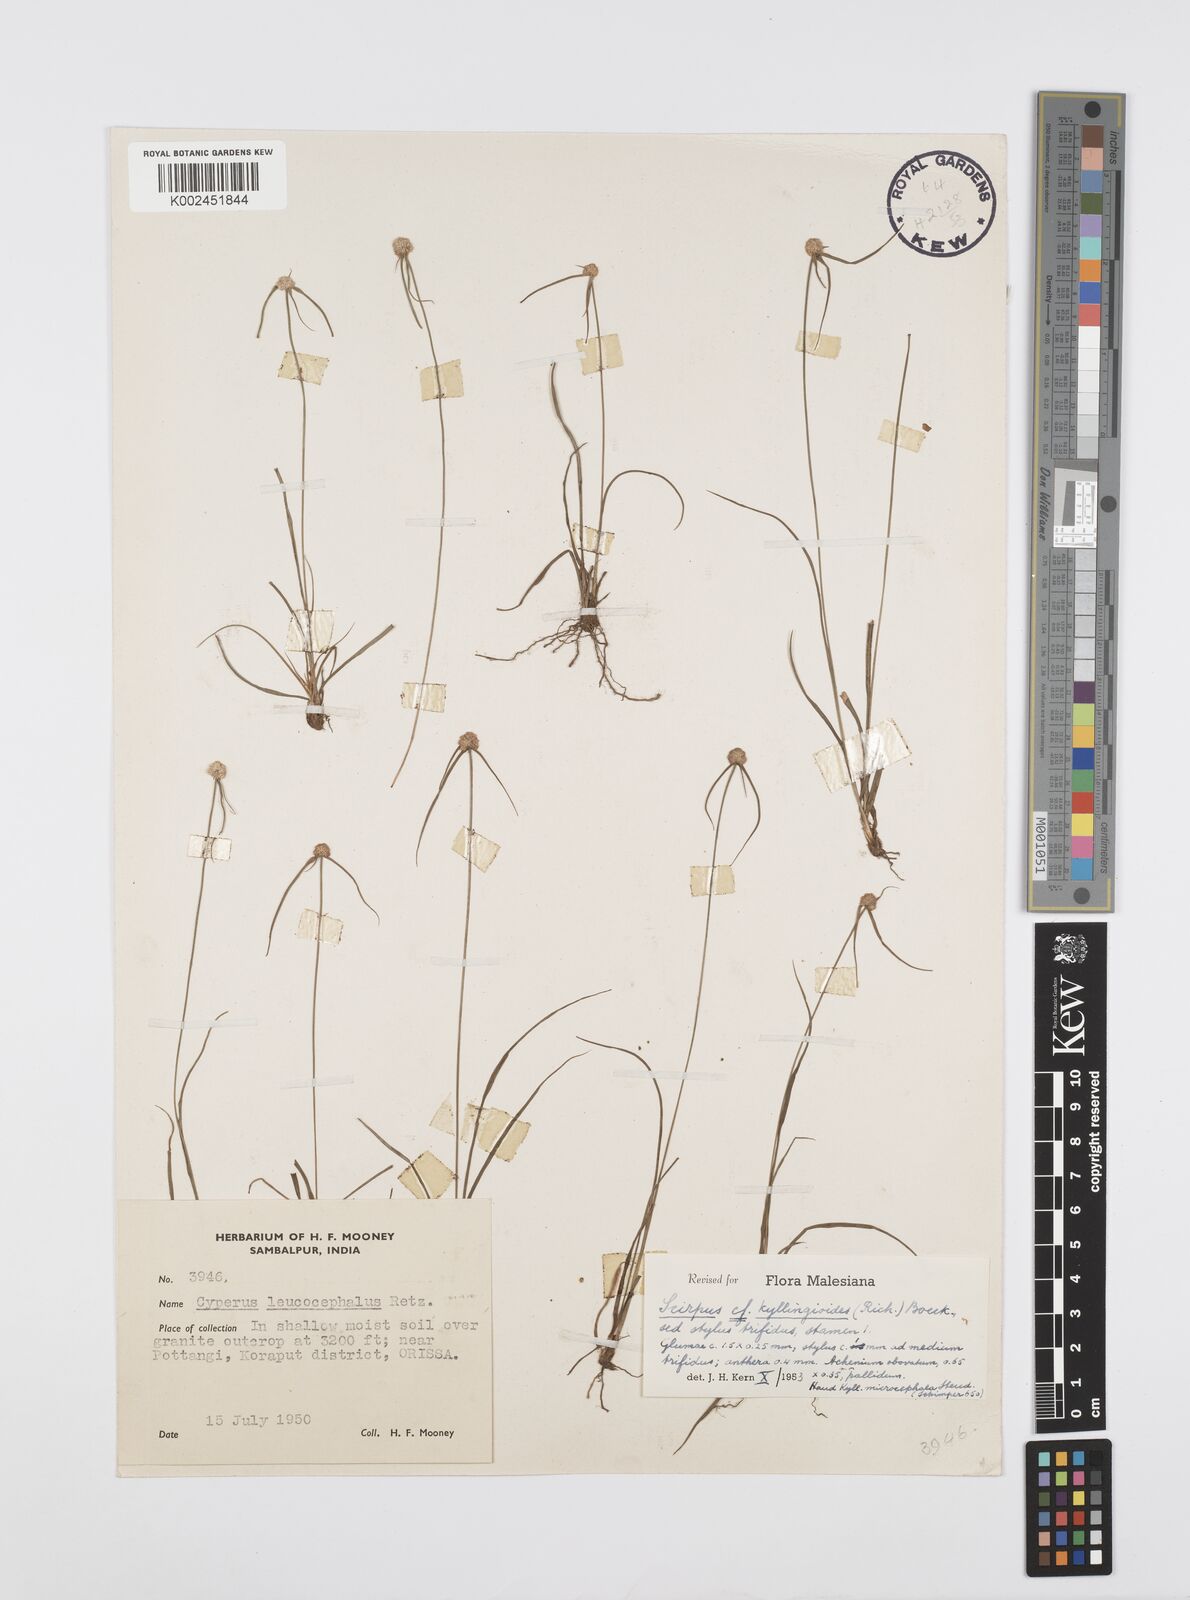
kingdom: Plantae
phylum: Tracheophyta
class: Liliopsida
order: Poales
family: Cyperaceae
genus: Cyperus
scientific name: Cyperus
